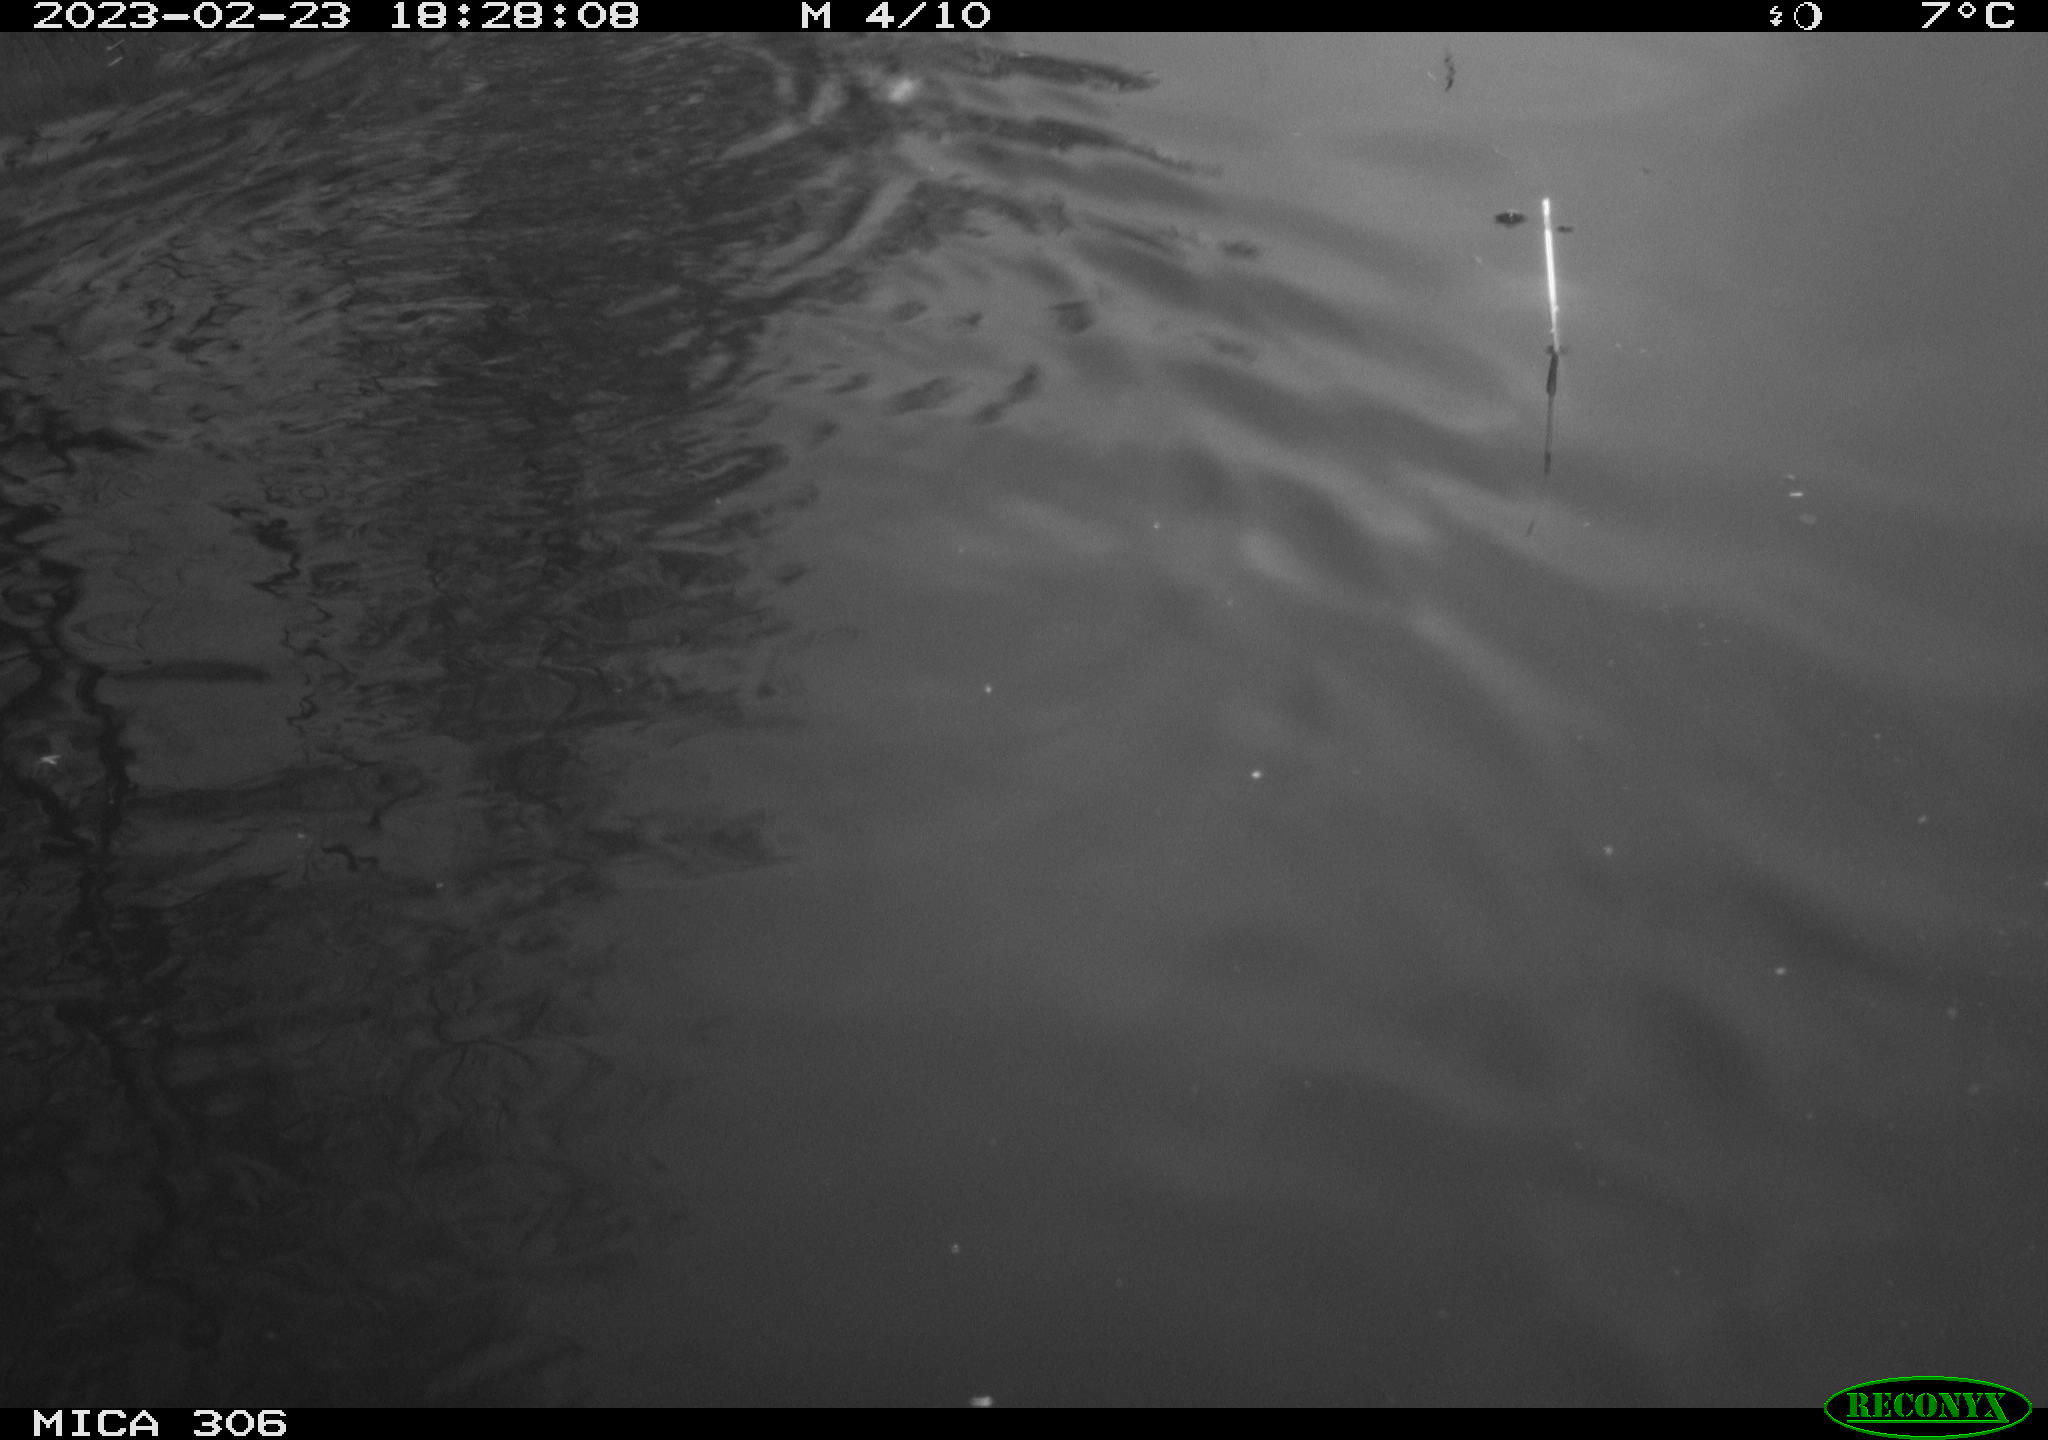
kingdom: Animalia
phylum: Chordata
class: Mammalia
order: Rodentia
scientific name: Rodentia
